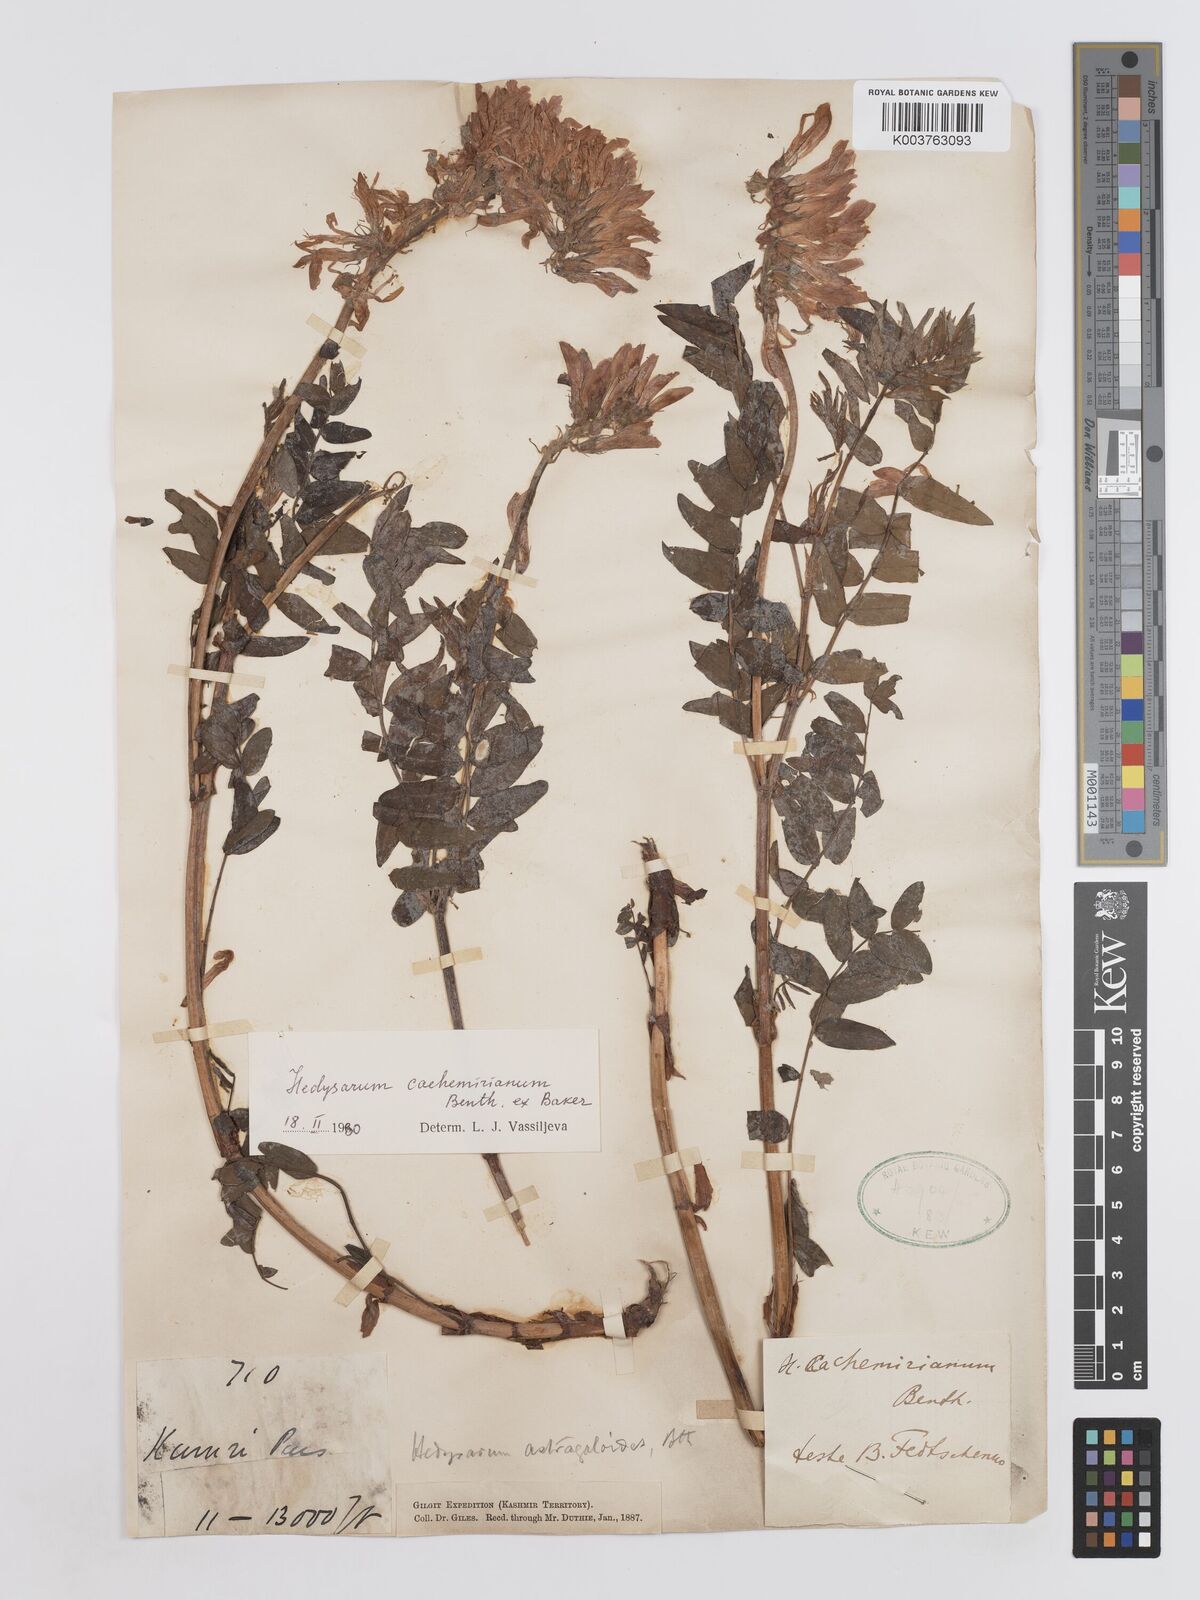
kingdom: Plantae
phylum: Tracheophyta
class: Magnoliopsida
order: Fabales
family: Fabaceae
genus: Hedysarum
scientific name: Hedysarum cachemirianum
